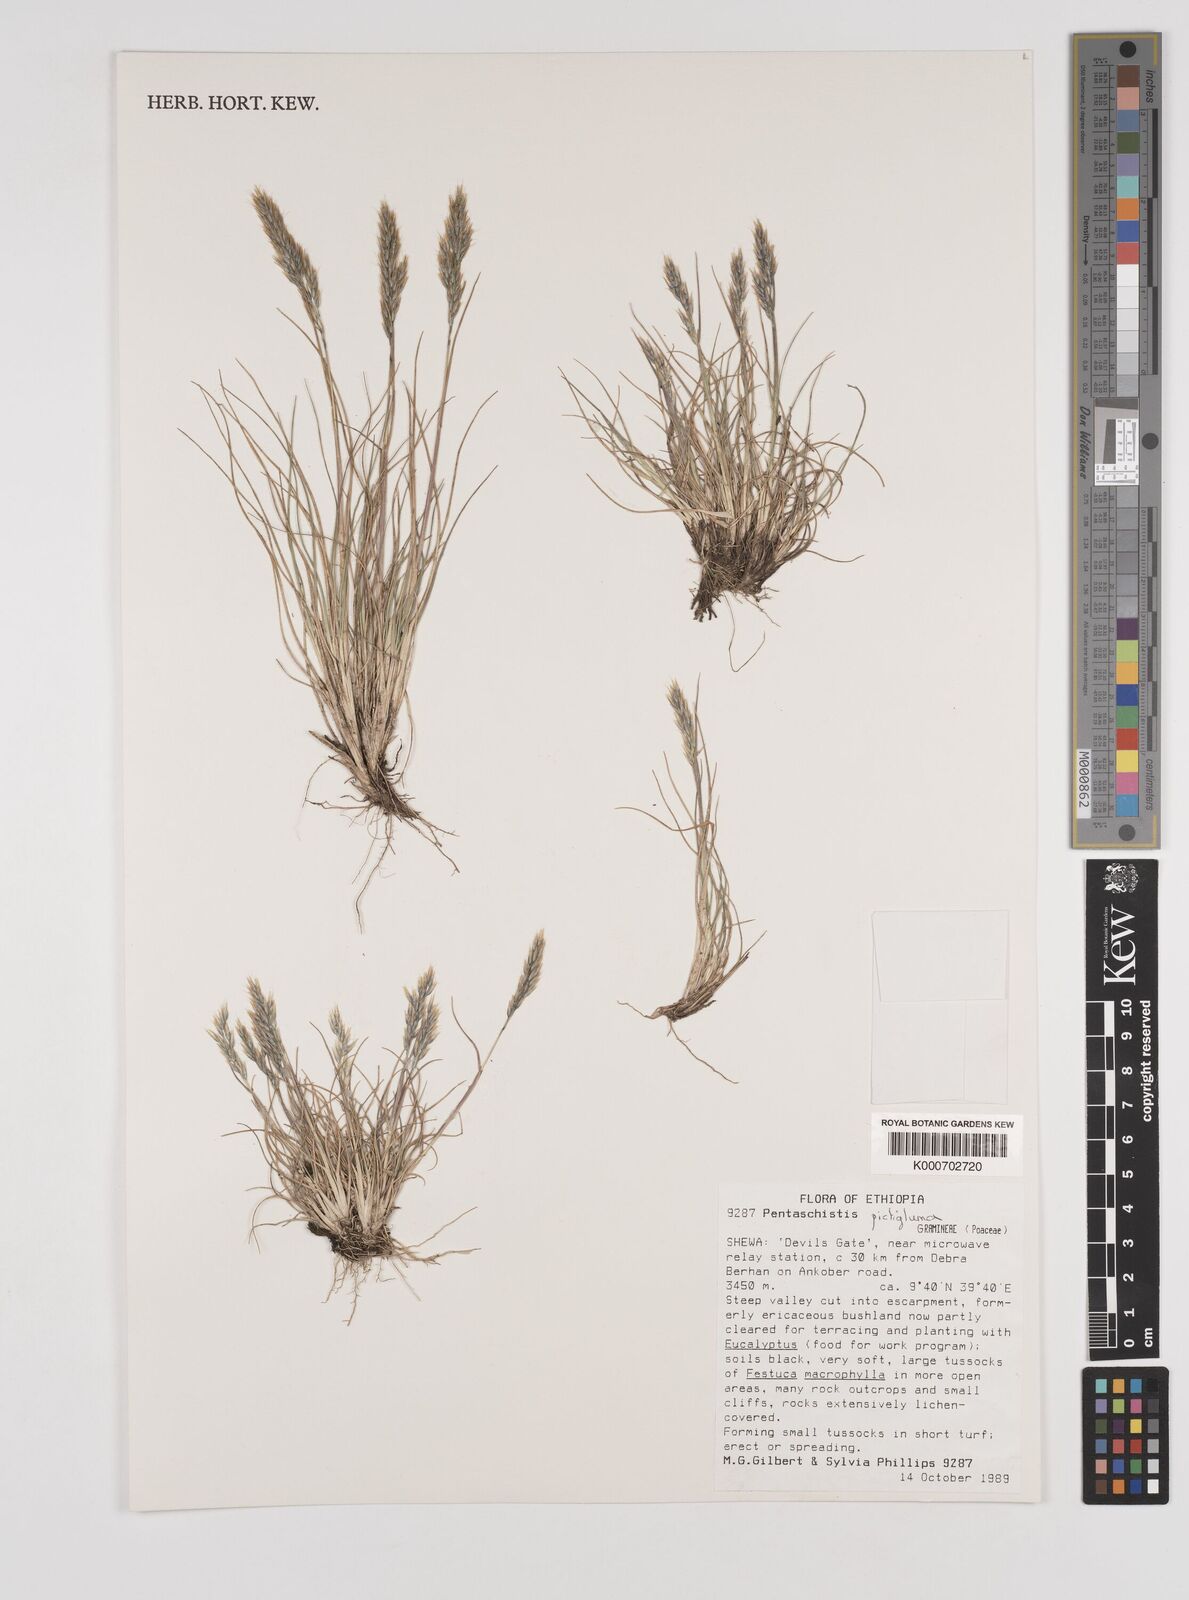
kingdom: Plantae
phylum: Tracheophyta
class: Liliopsida
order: Poales
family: Poaceae
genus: Pentameris
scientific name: Pentameris pictigluma
